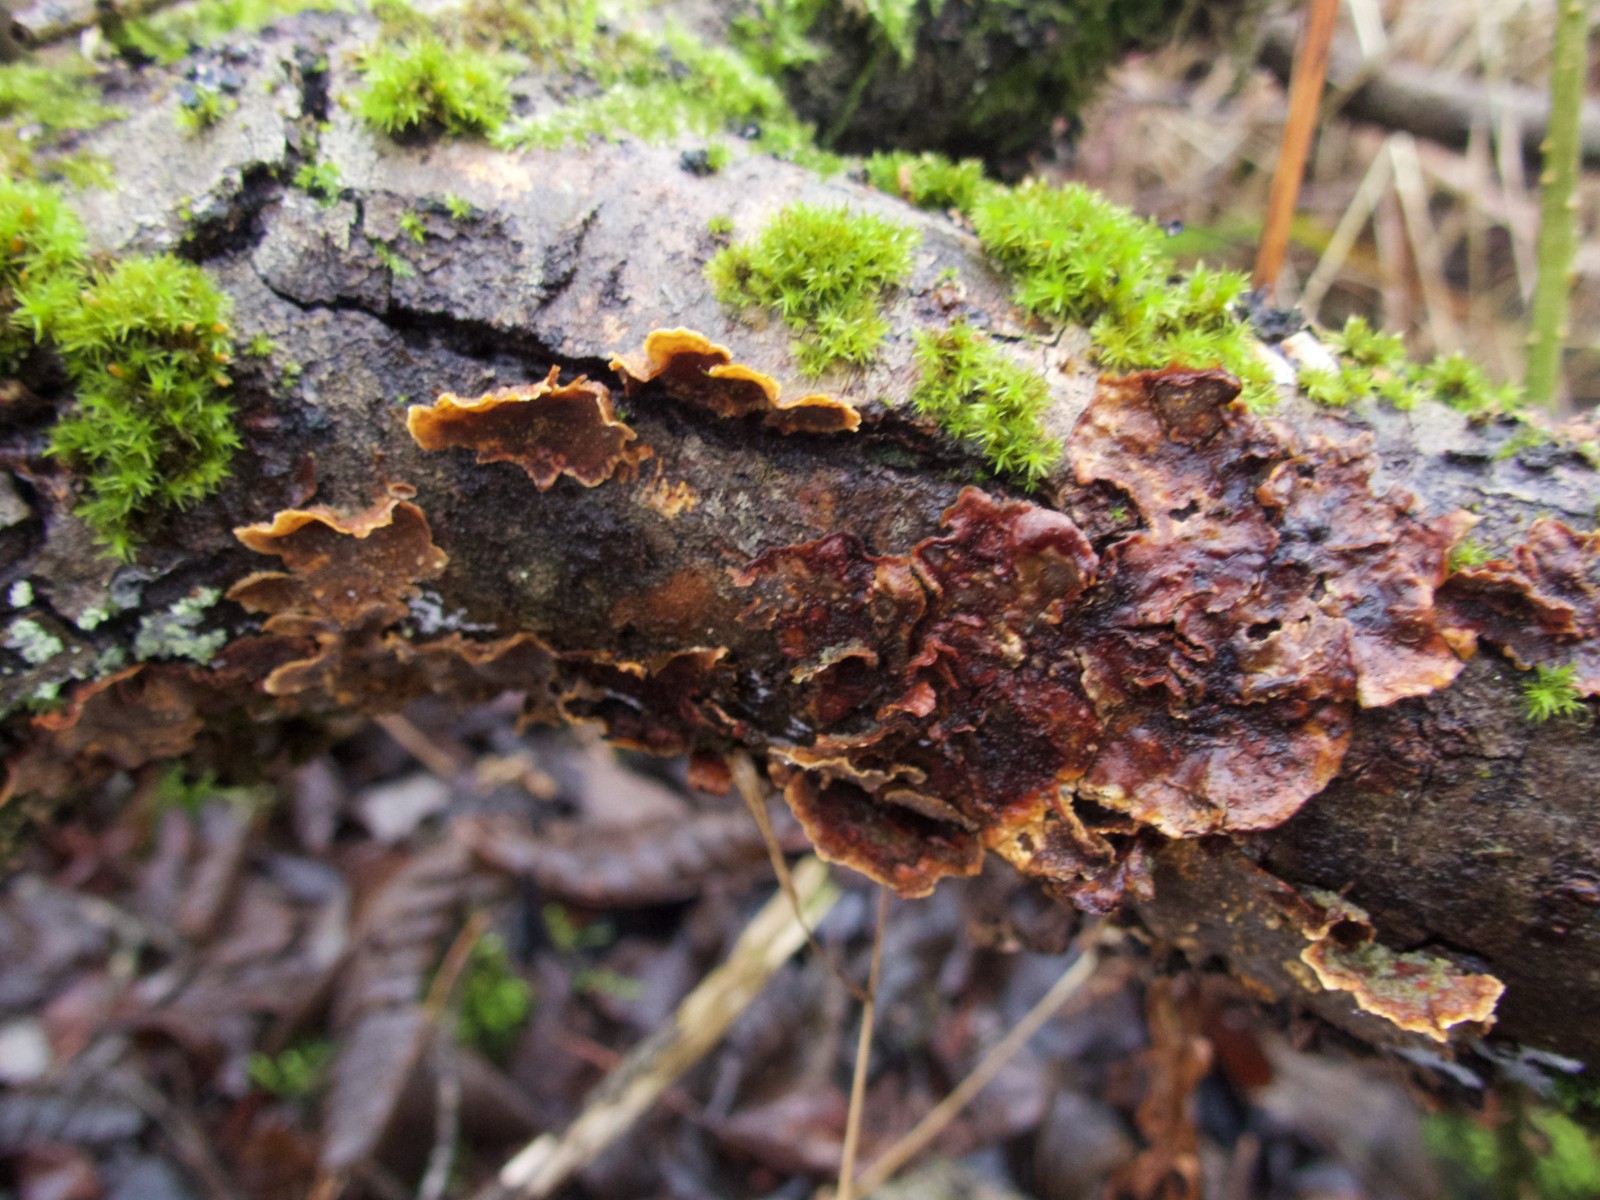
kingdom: Fungi
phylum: Basidiomycota
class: Agaricomycetes
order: Hymenochaetales
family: Hymenochaetaceae
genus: Hydnoporia
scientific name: Hydnoporia tabacina
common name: tobaksbrun ruslædersvamp
